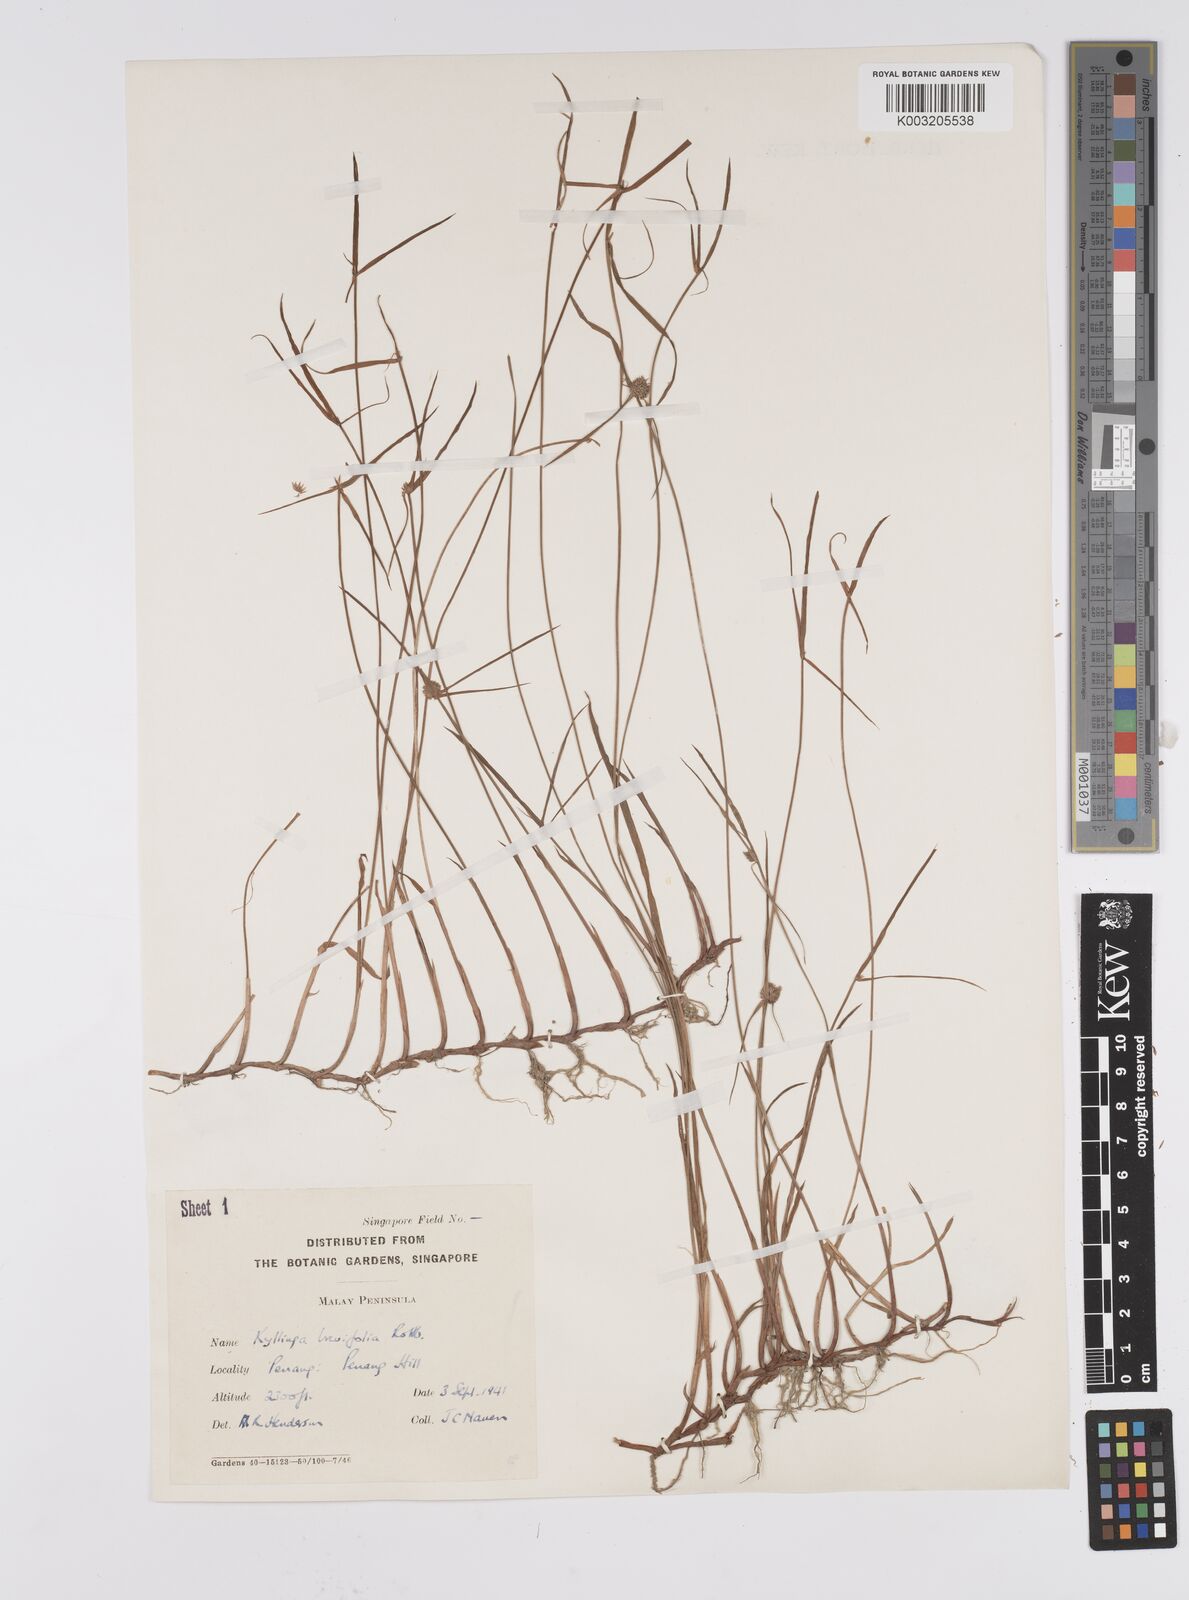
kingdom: Plantae
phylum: Tracheophyta
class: Liliopsida
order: Poales
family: Cyperaceae
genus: Cyperus
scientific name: Cyperus
